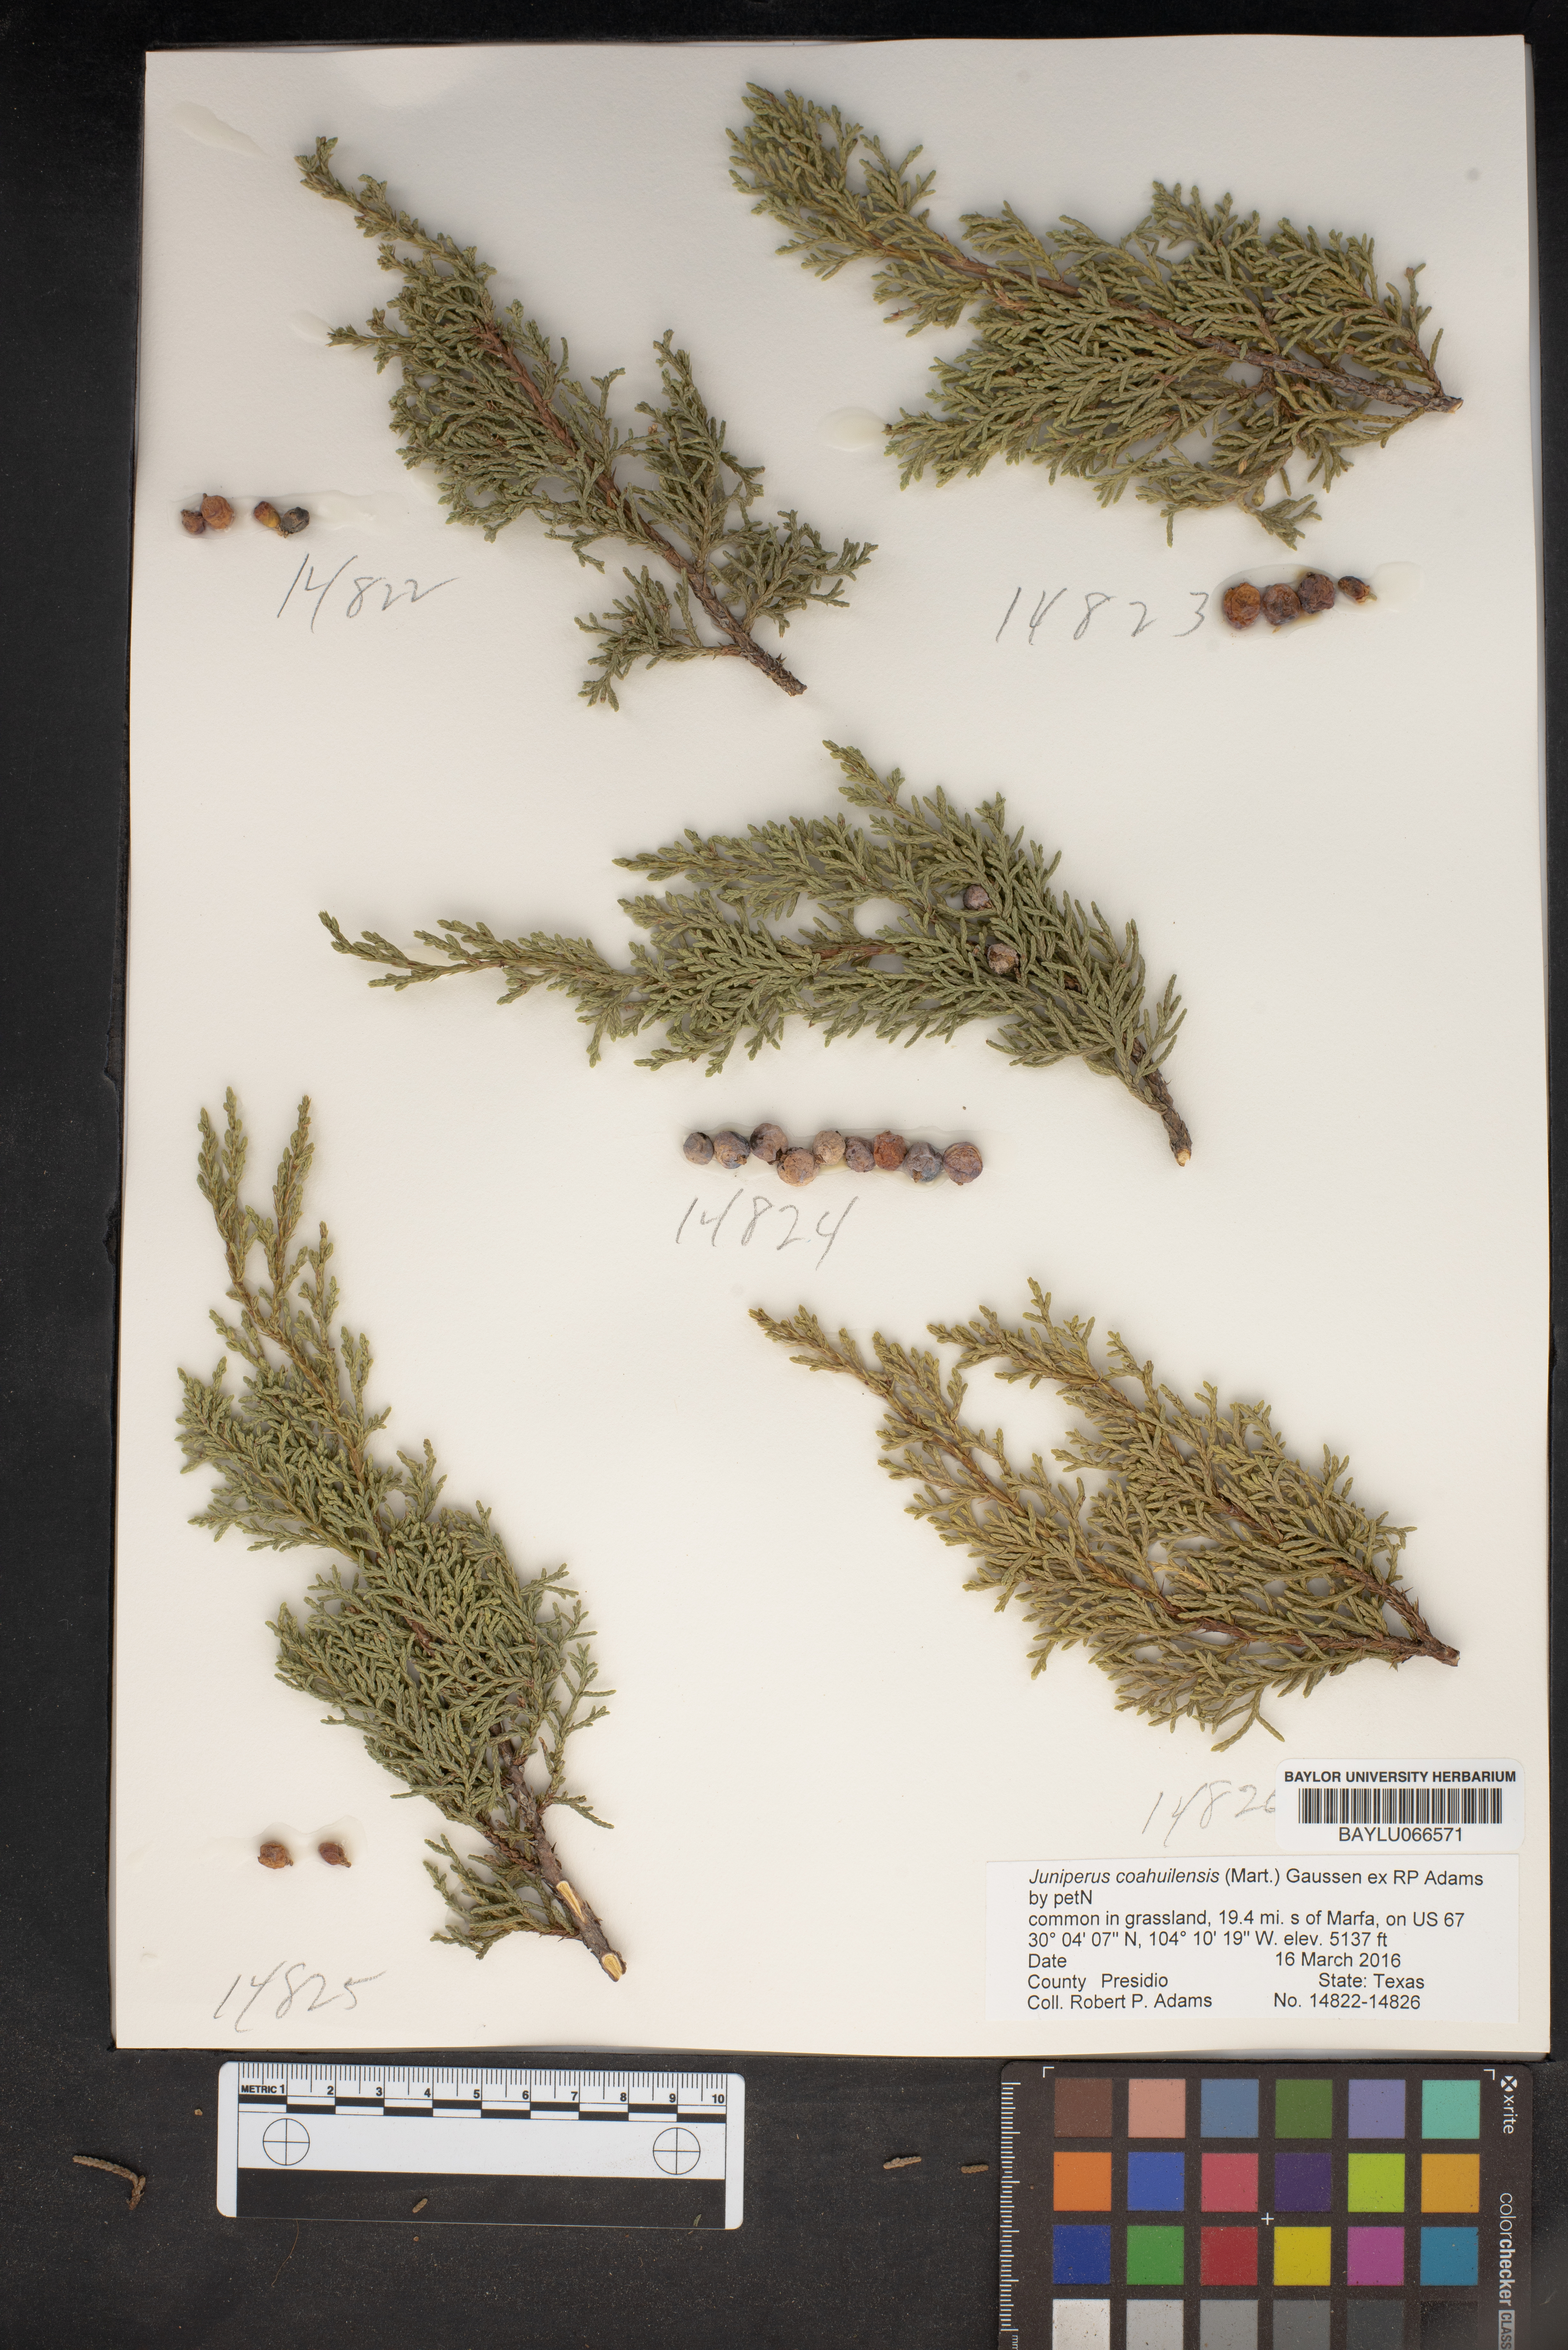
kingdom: Plantae
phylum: Tracheophyta
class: Pinopsida
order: Pinales
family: Cupressaceae
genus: Juniperus
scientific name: Juniperus coahuilensis
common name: Roseberry
